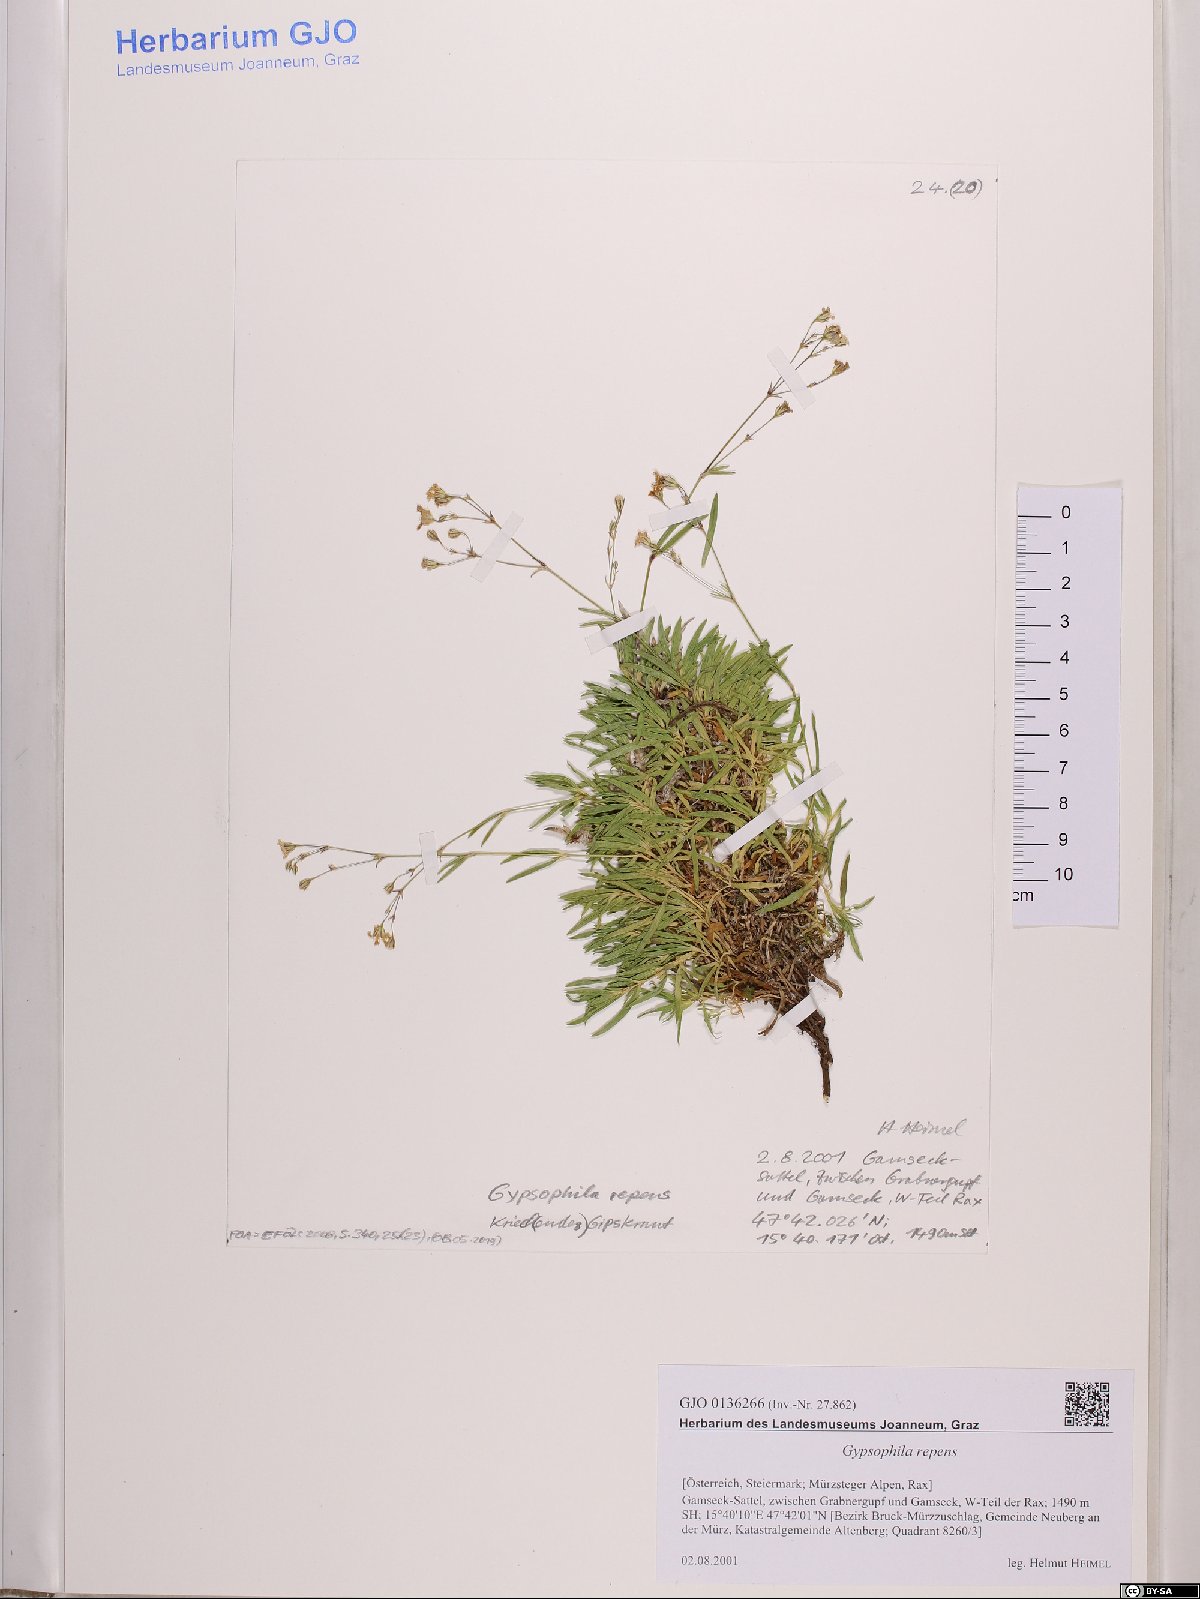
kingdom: Plantae
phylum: Tracheophyta
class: Magnoliopsida
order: Caryophyllales
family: Caryophyllaceae
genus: Gypsophila
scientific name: Gypsophila repens
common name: Creeping baby's-breath
